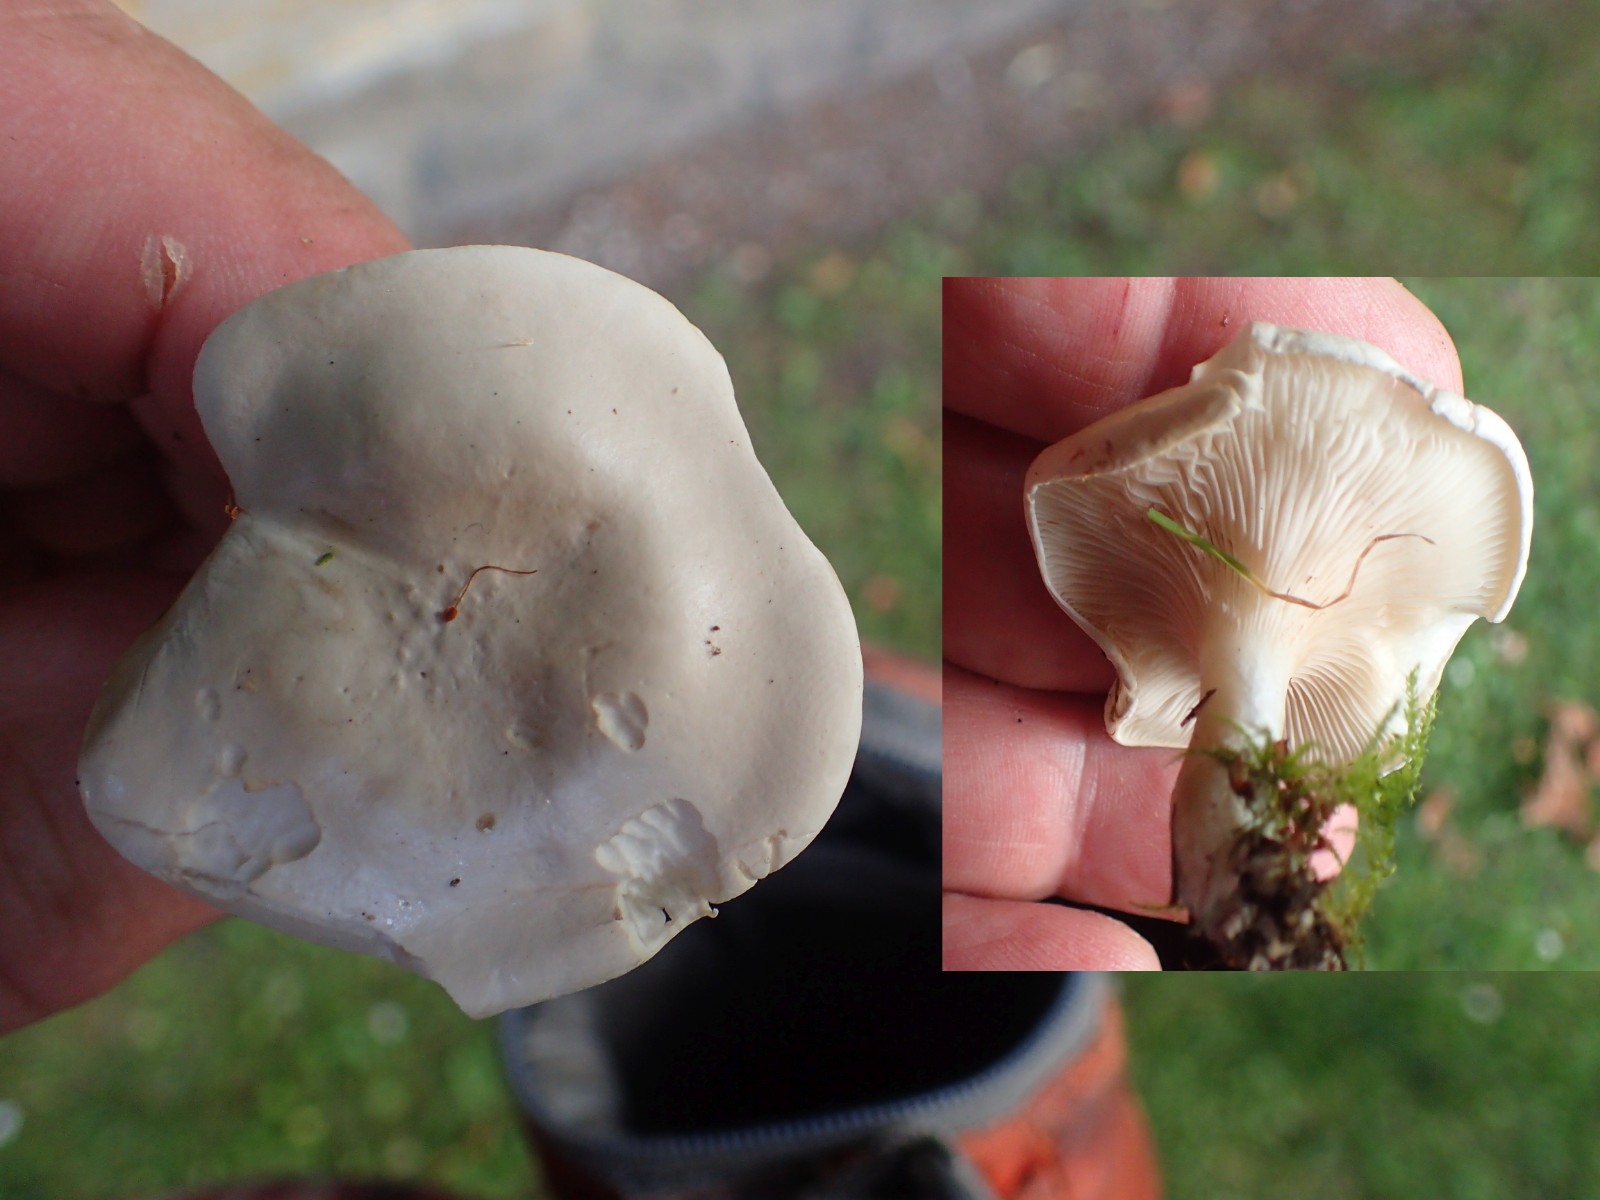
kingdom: Fungi
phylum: Basidiomycota
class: Agaricomycetes
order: Agaricales
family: Entolomataceae
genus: Clitopilus
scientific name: Clitopilus prunulus
